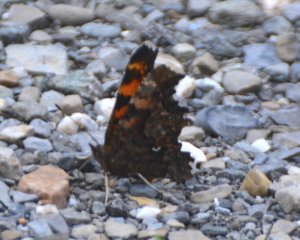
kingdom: Animalia
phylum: Arthropoda
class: Insecta
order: Lepidoptera
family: Nymphalidae
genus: Polygonia
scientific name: Polygonia faunus
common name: Green Comma
